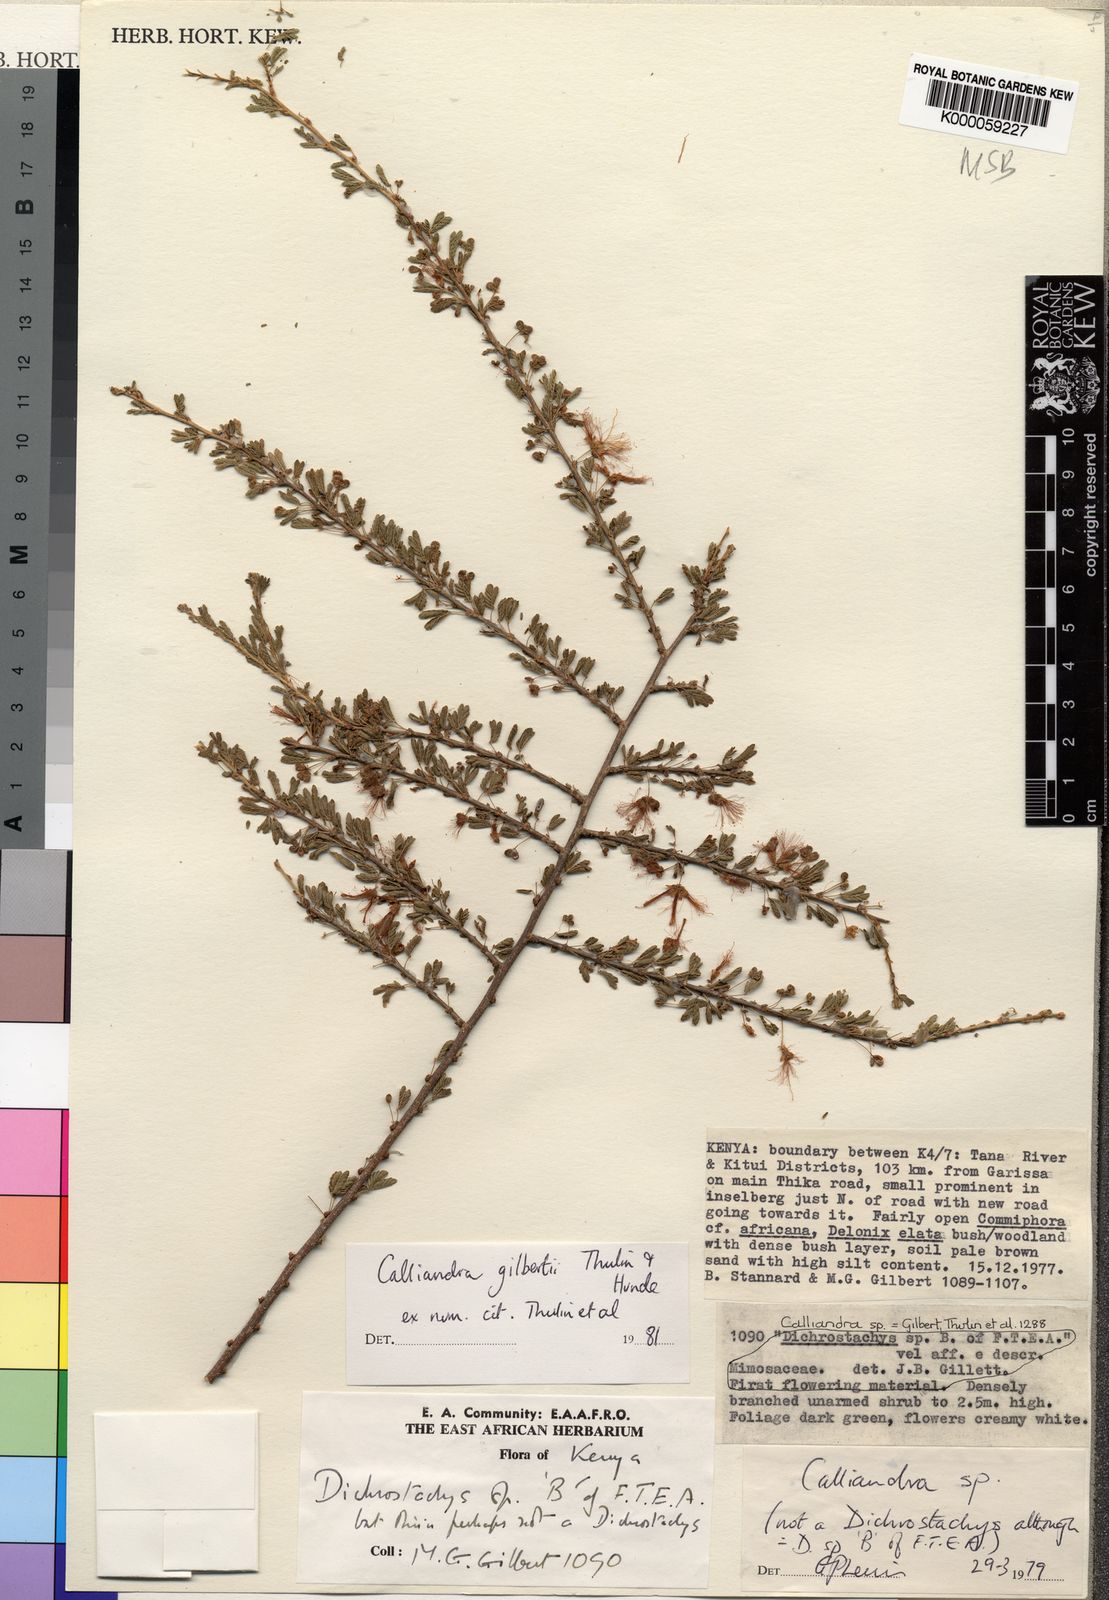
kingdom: Plantae
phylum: Tracheophyta
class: Magnoliopsida
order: Fabales
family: Fabaceae
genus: Afrocalliandra
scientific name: Afrocalliandra gilbertii
